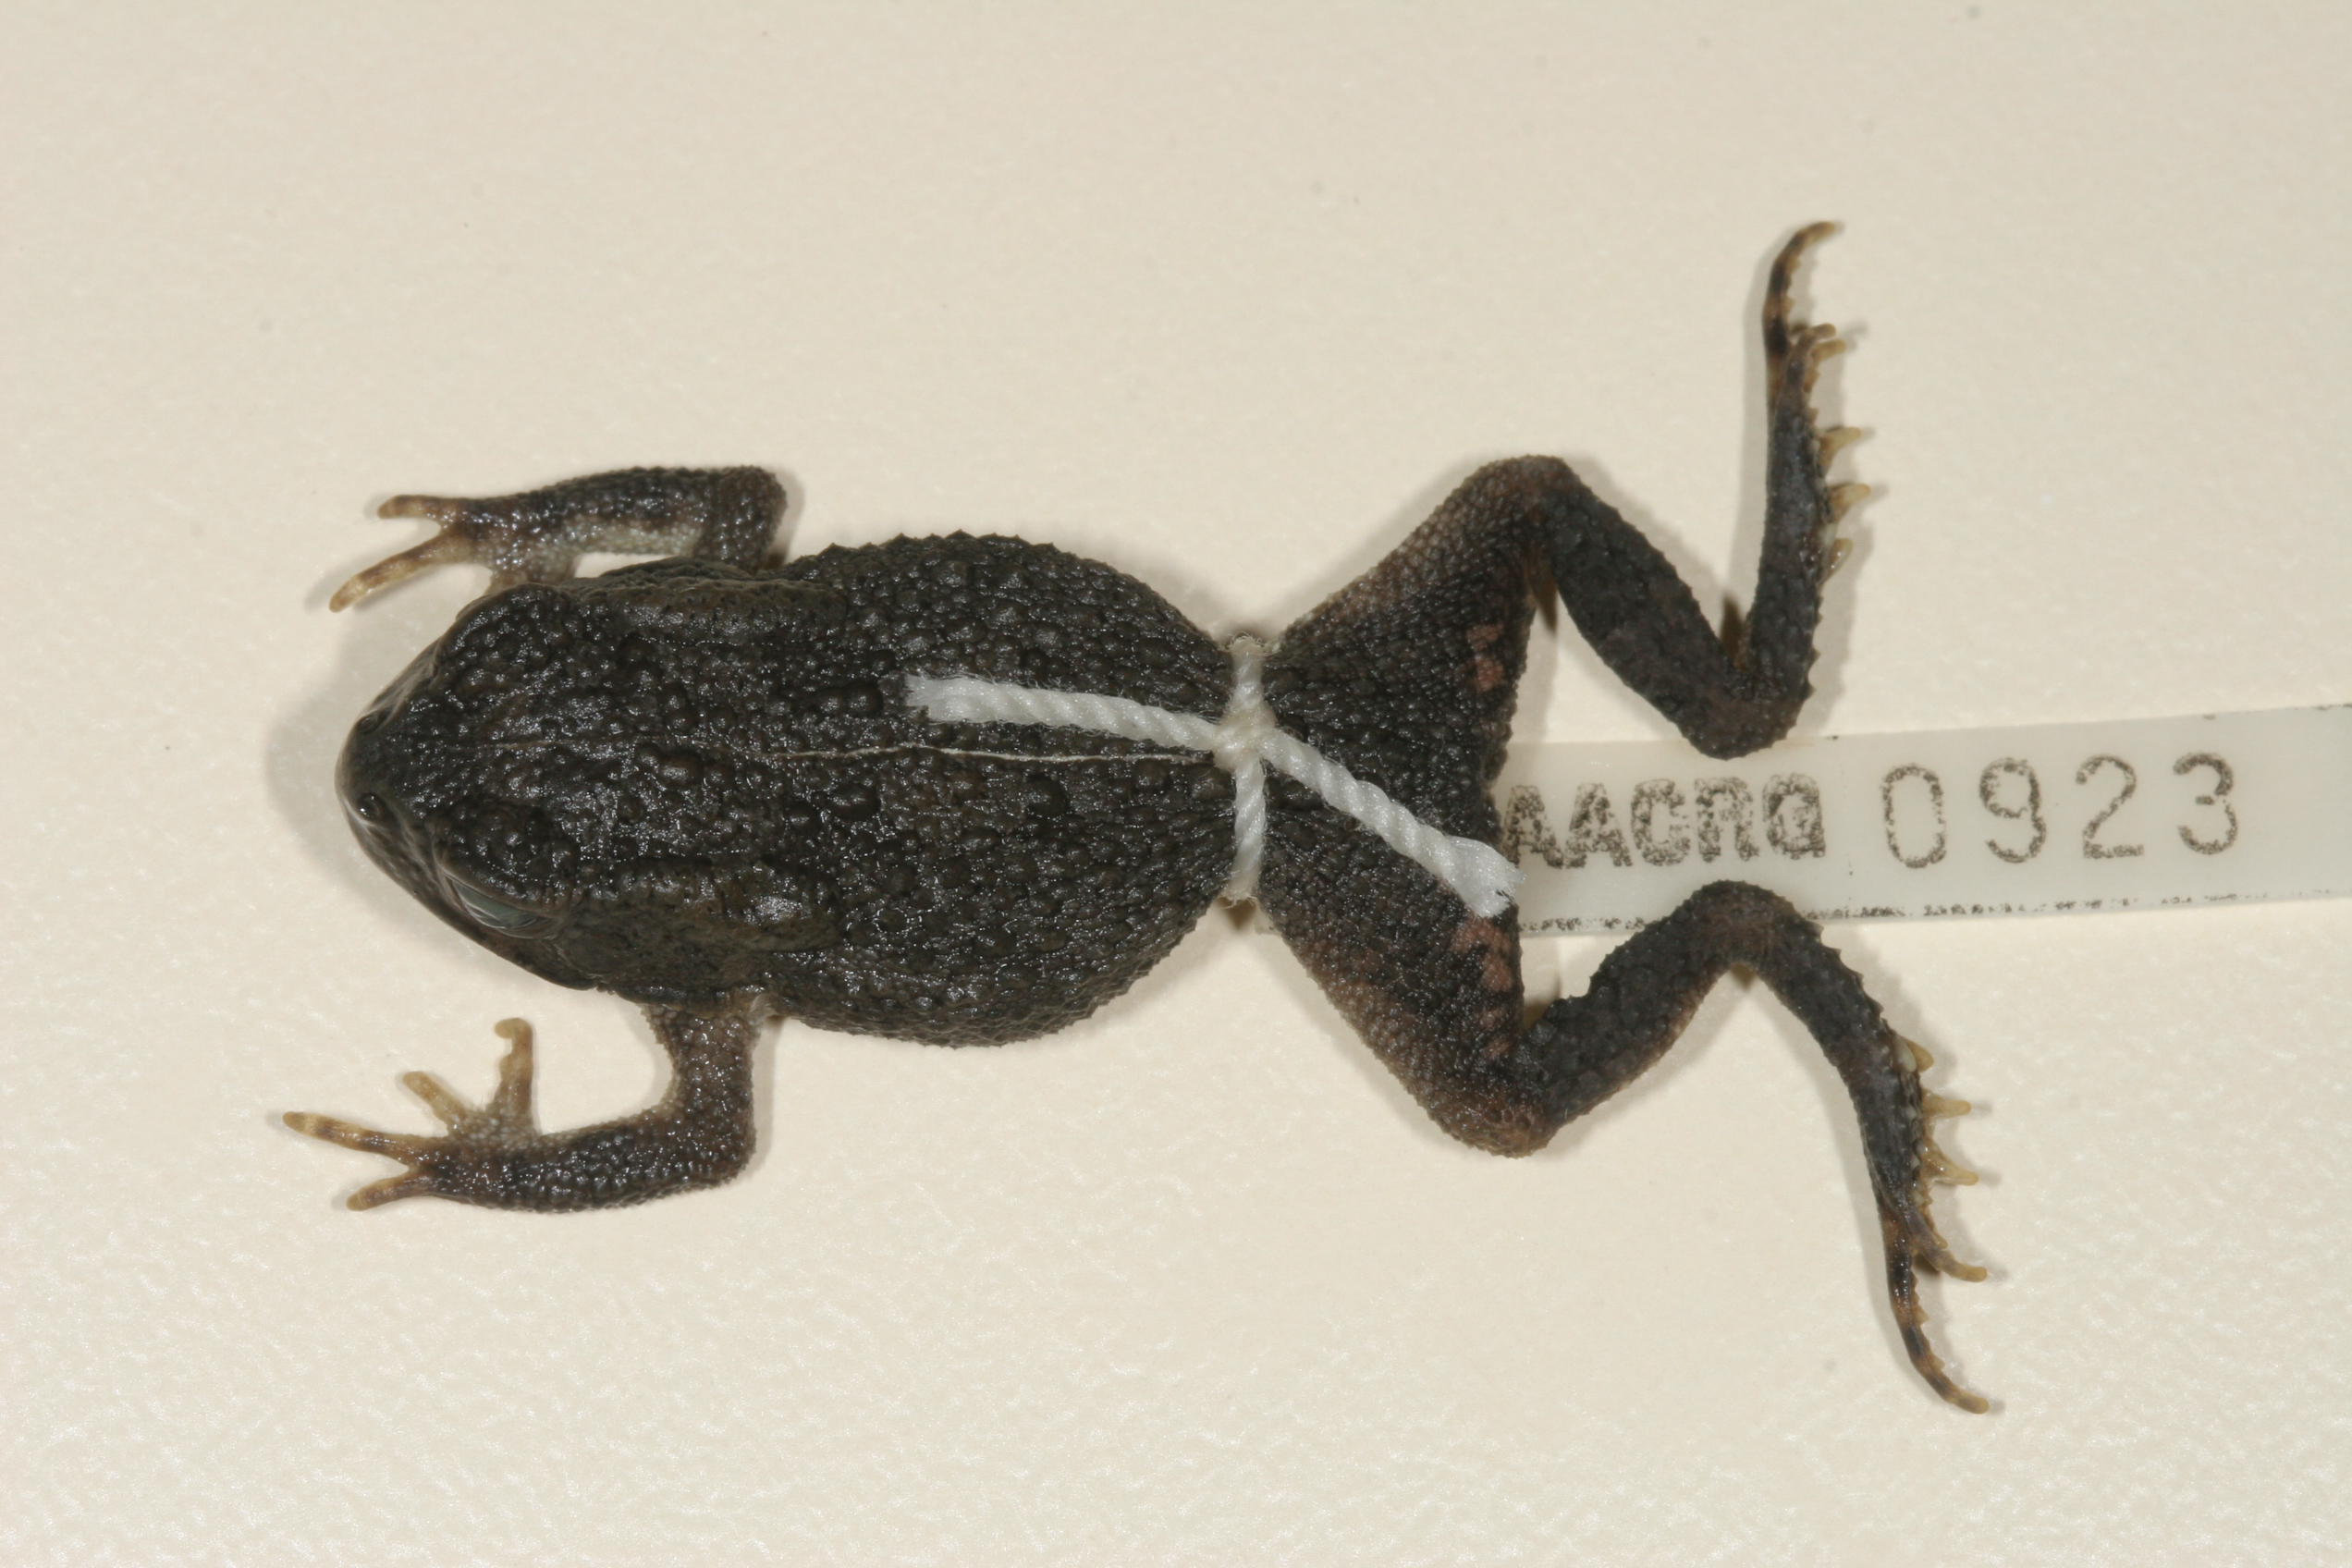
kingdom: Animalia
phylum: Chordata
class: Amphibia
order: Anura
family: Bufonidae
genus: Sclerophrys
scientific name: Sclerophrys gutturalis
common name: African common toad
